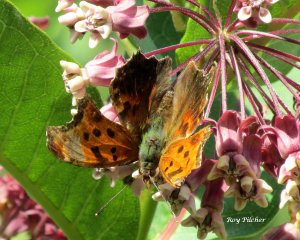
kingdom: Animalia
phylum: Arthropoda
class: Insecta
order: Lepidoptera
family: Nymphalidae
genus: Polygonia
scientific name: Polygonia comma
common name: Eastern Comma
